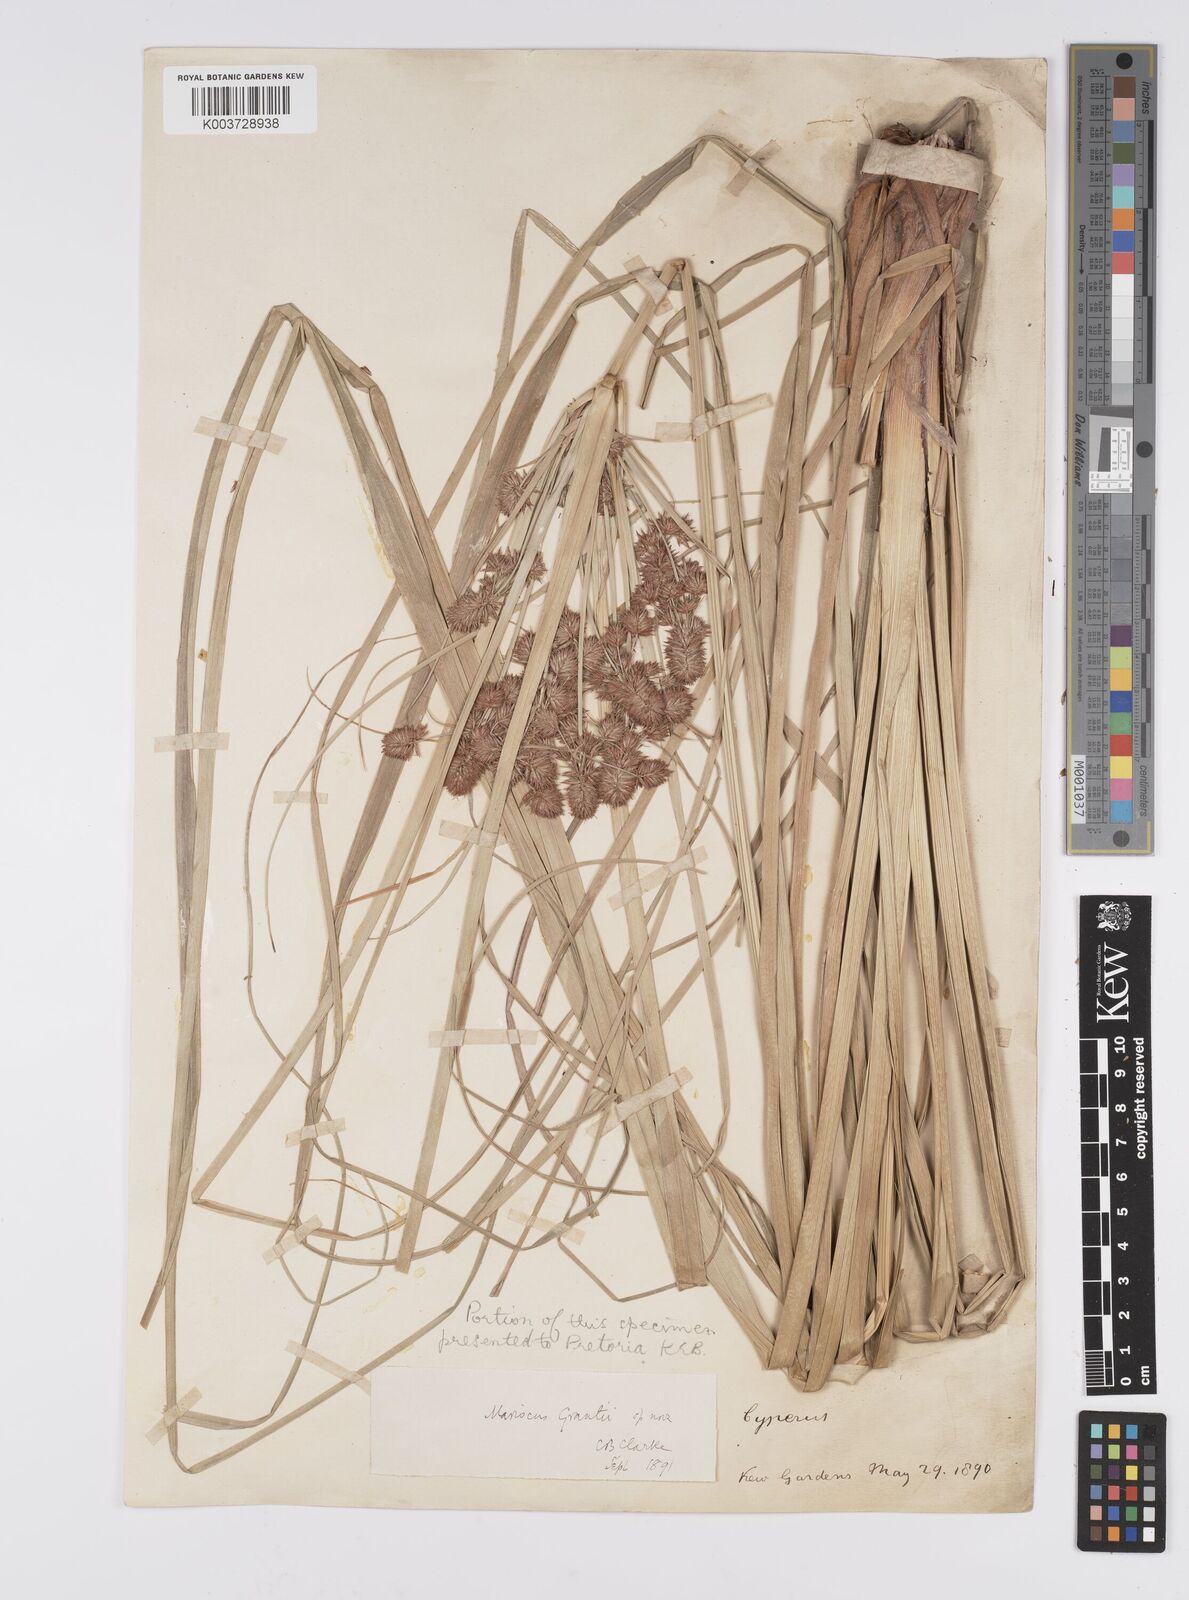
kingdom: Plantae
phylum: Tracheophyta
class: Liliopsida
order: Poales
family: Cyperaceae
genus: Cyperus
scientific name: Cyperus owanii
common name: Owan's flatsedge
